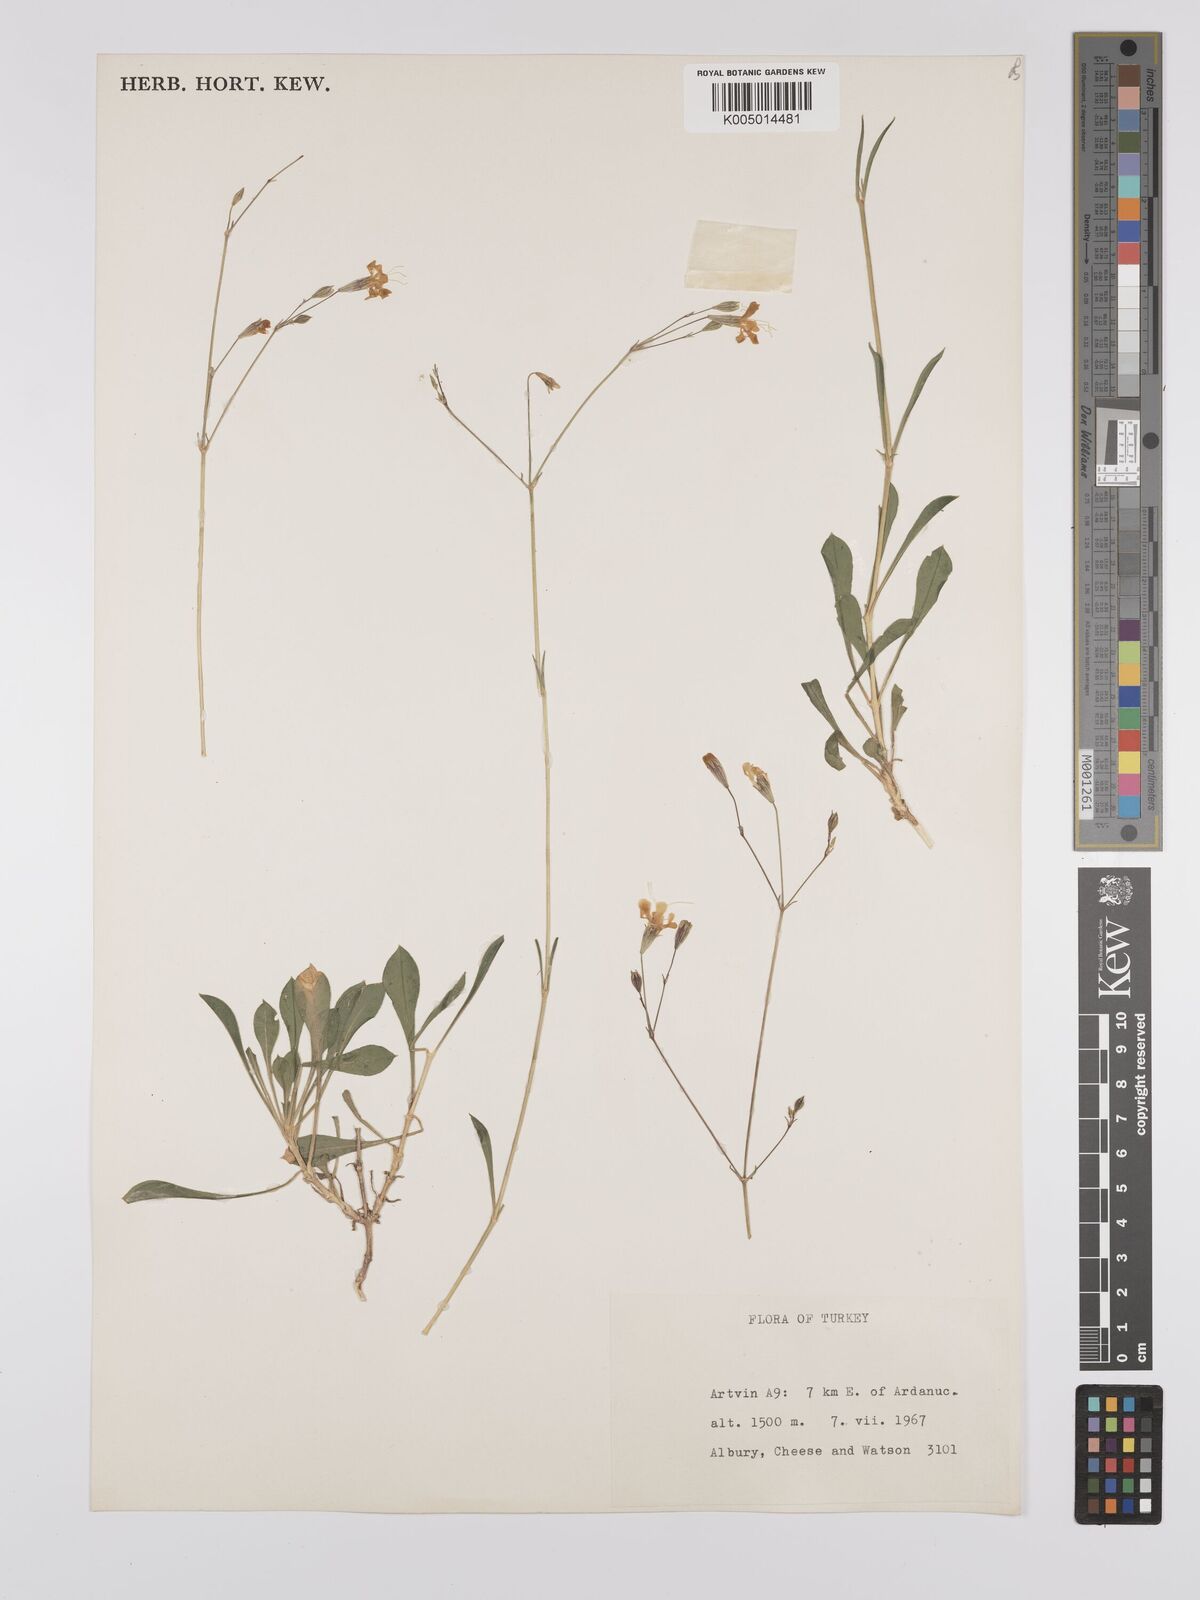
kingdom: Plantae
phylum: Tracheophyta
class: Magnoliopsida
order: Caryophyllales
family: Caryophyllaceae
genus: Silene
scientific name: Silene
